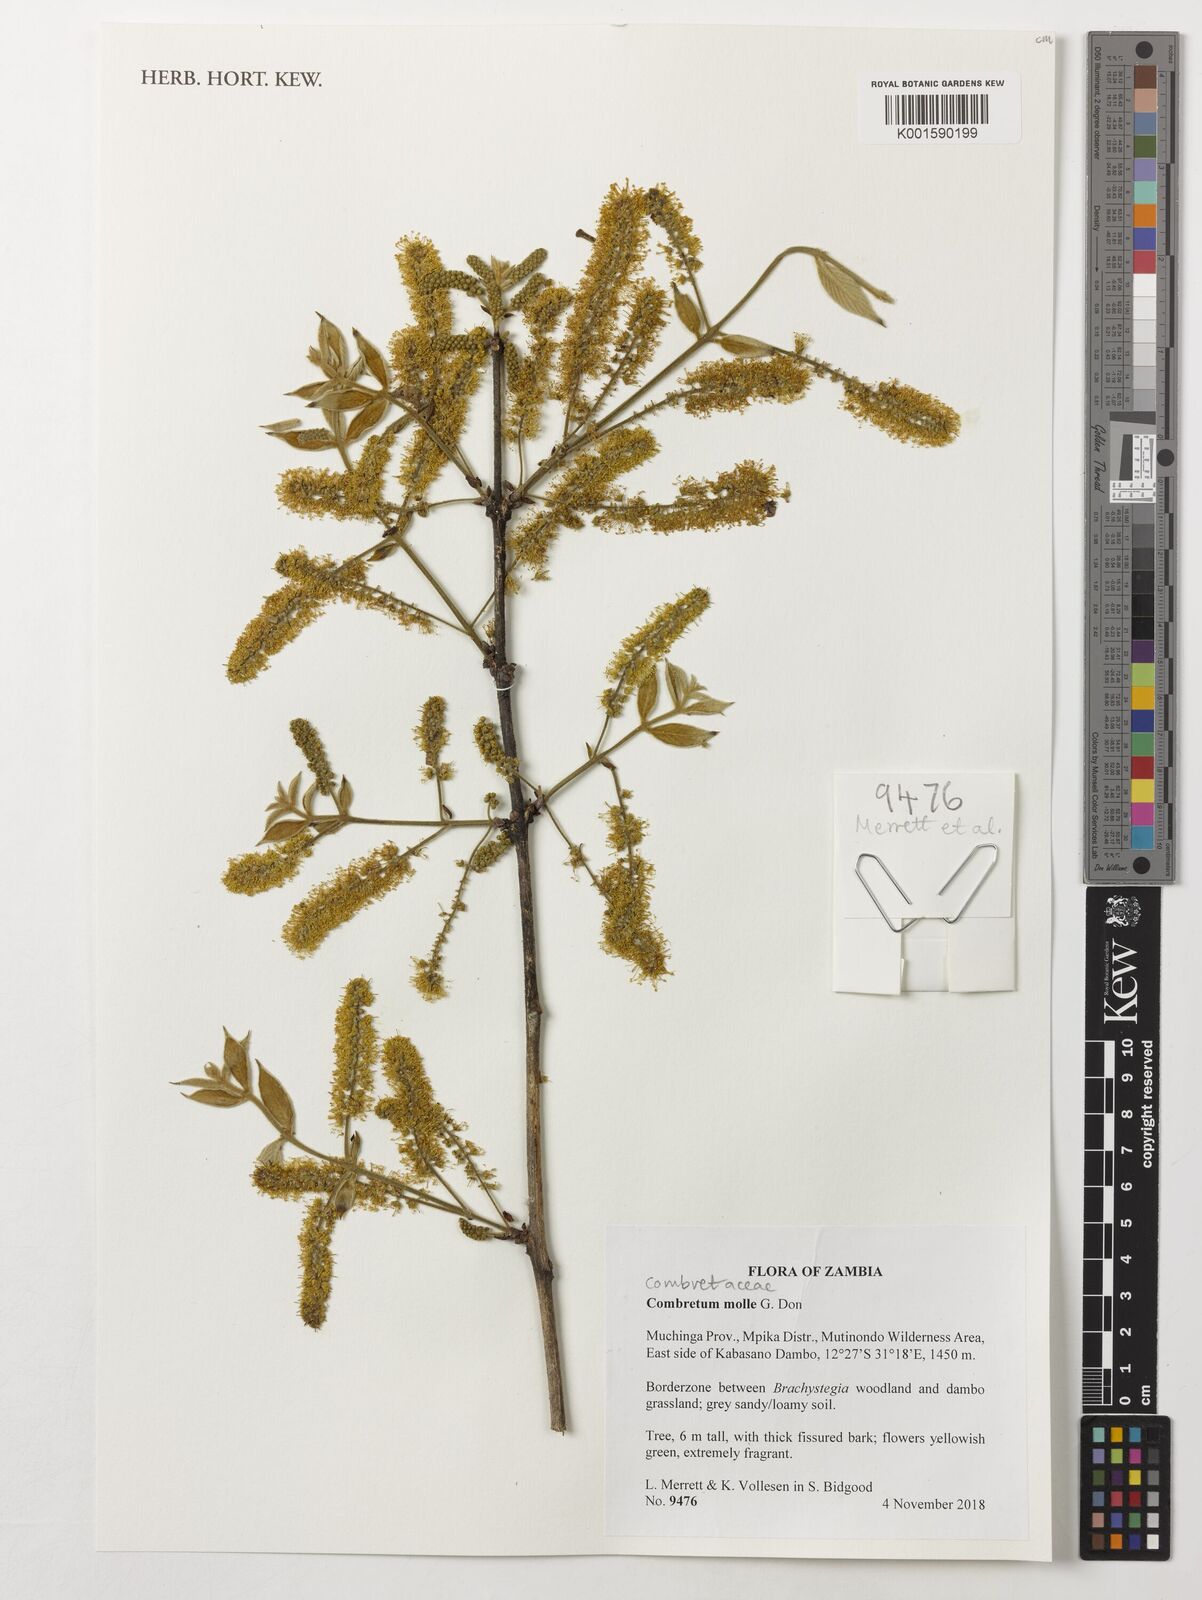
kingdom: Plantae
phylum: Tracheophyta
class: Magnoliopsida
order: Myrtales
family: Combretaceae
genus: Combretum
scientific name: Combretum molle
